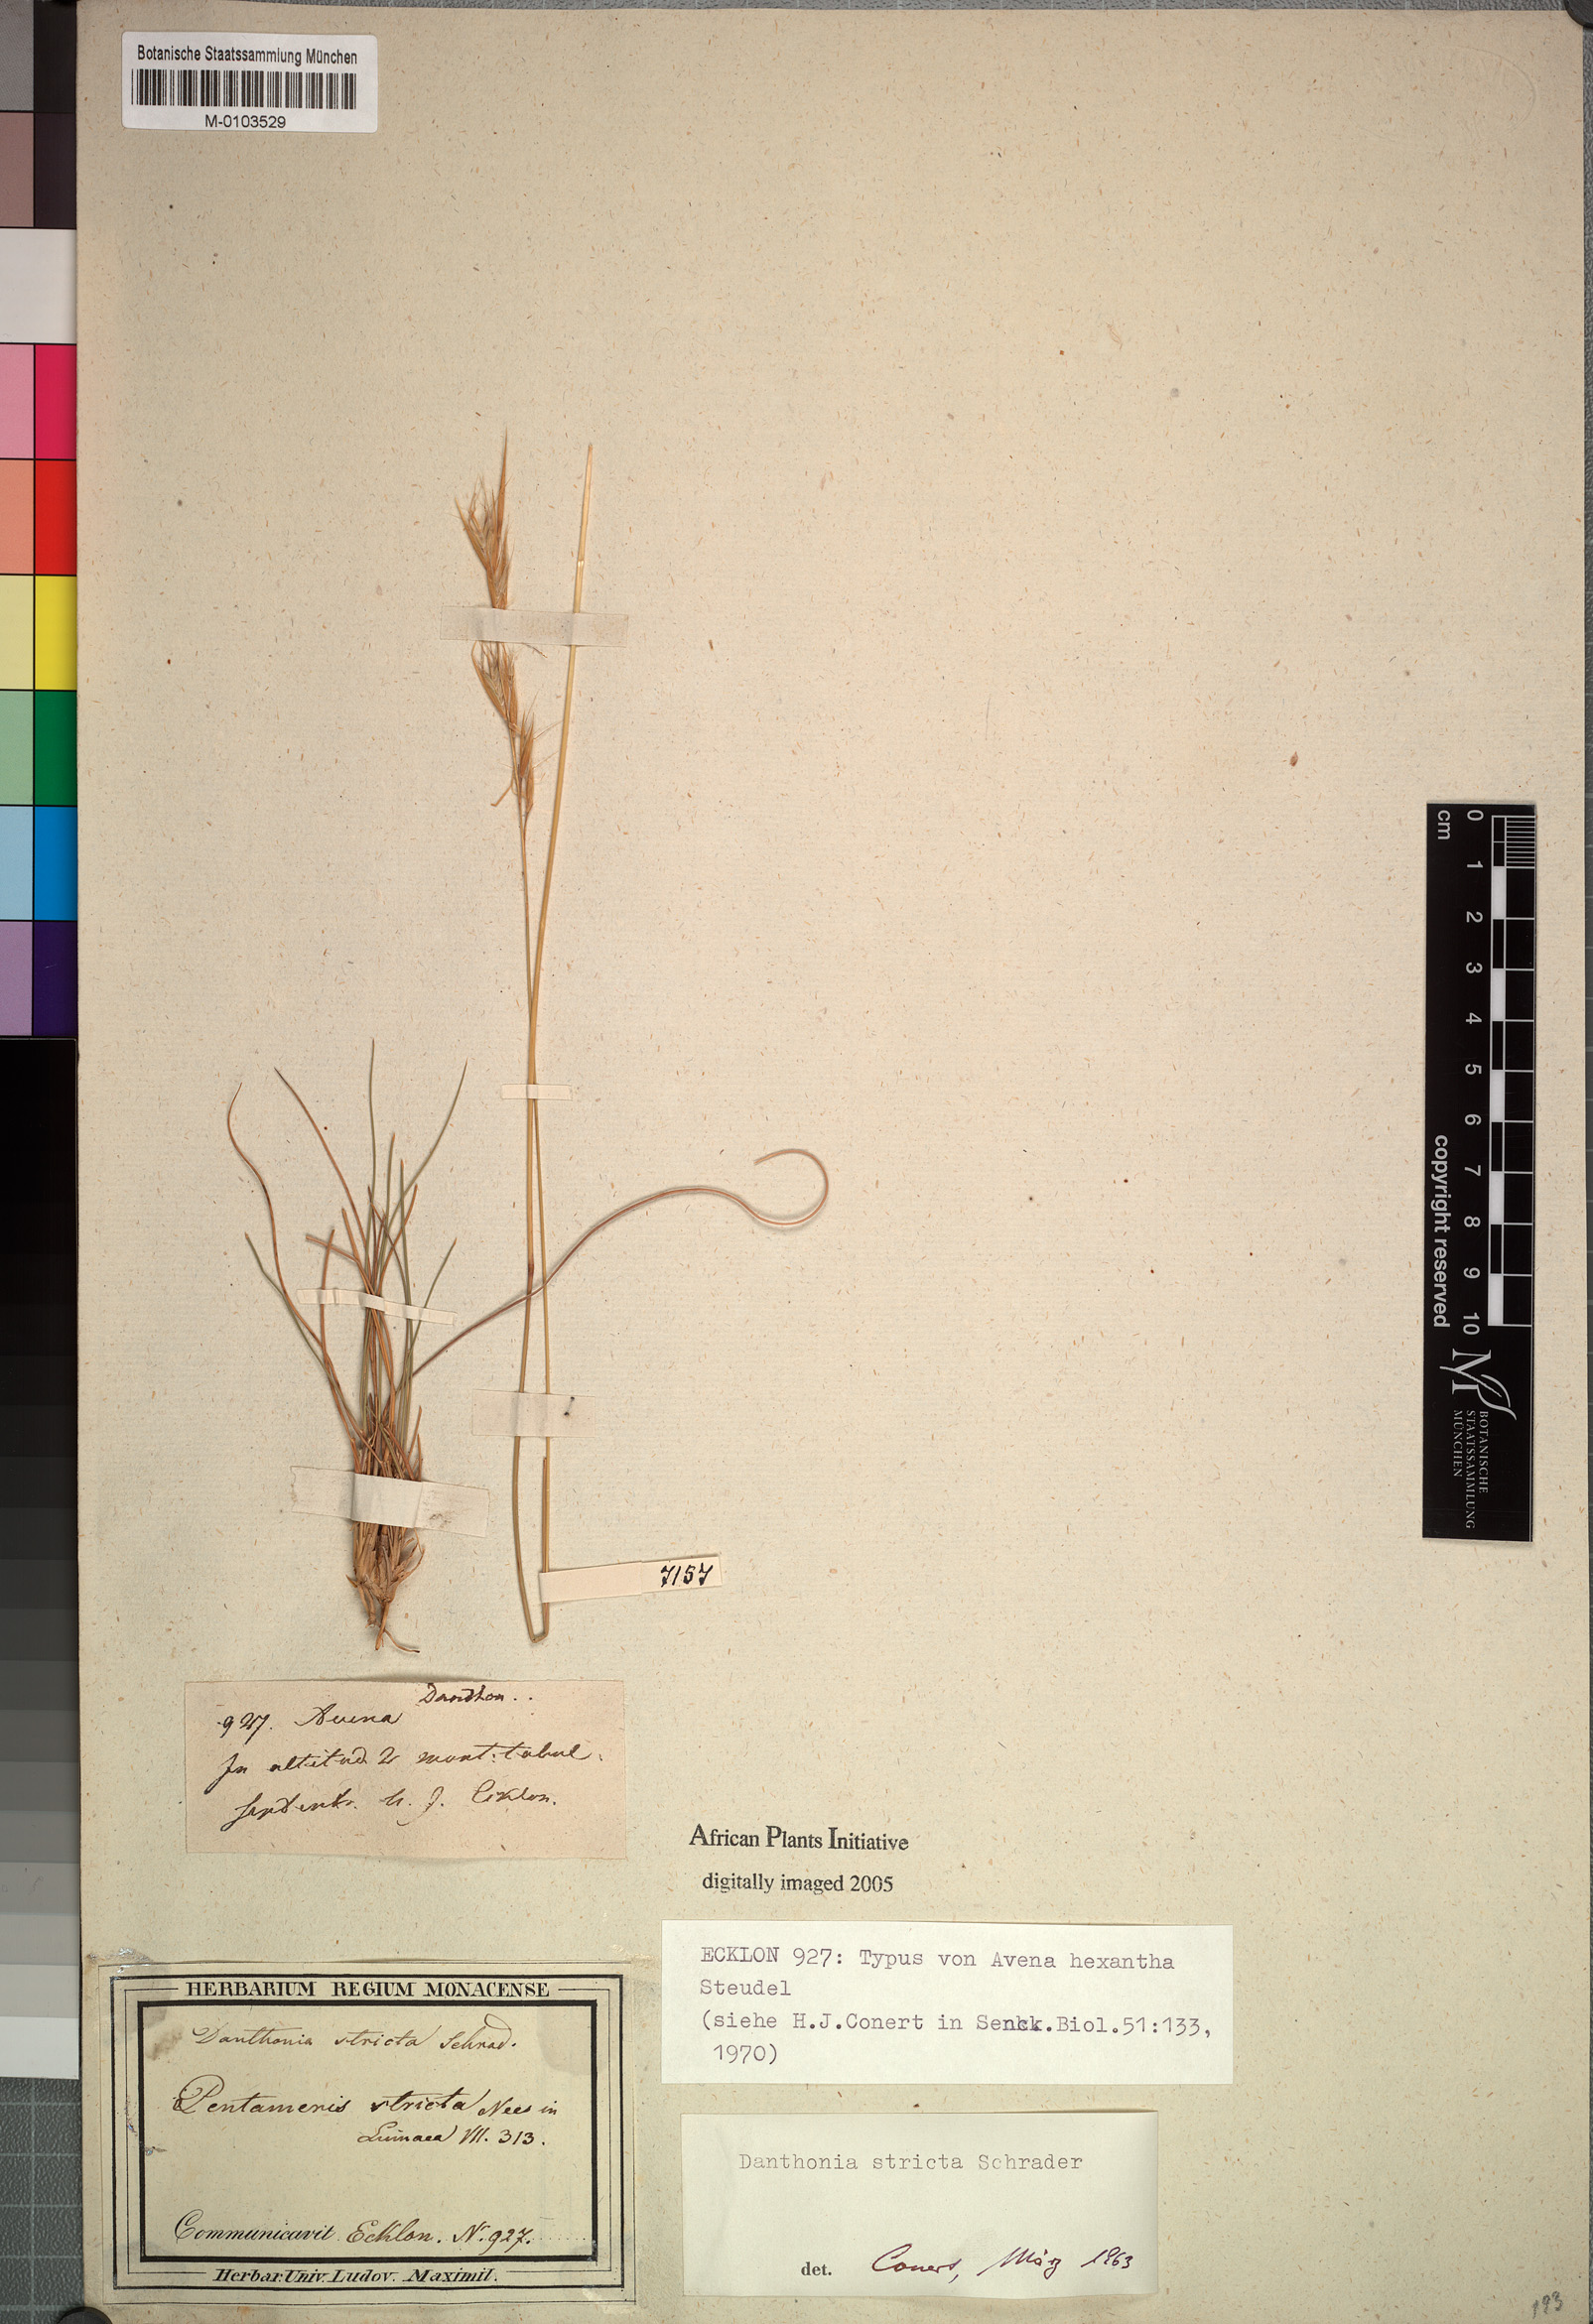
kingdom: Plantae
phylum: Tracheophyta
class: Liliopsida
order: Poales
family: Poaceae
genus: Tenaxia
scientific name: Tenaxia stricta
